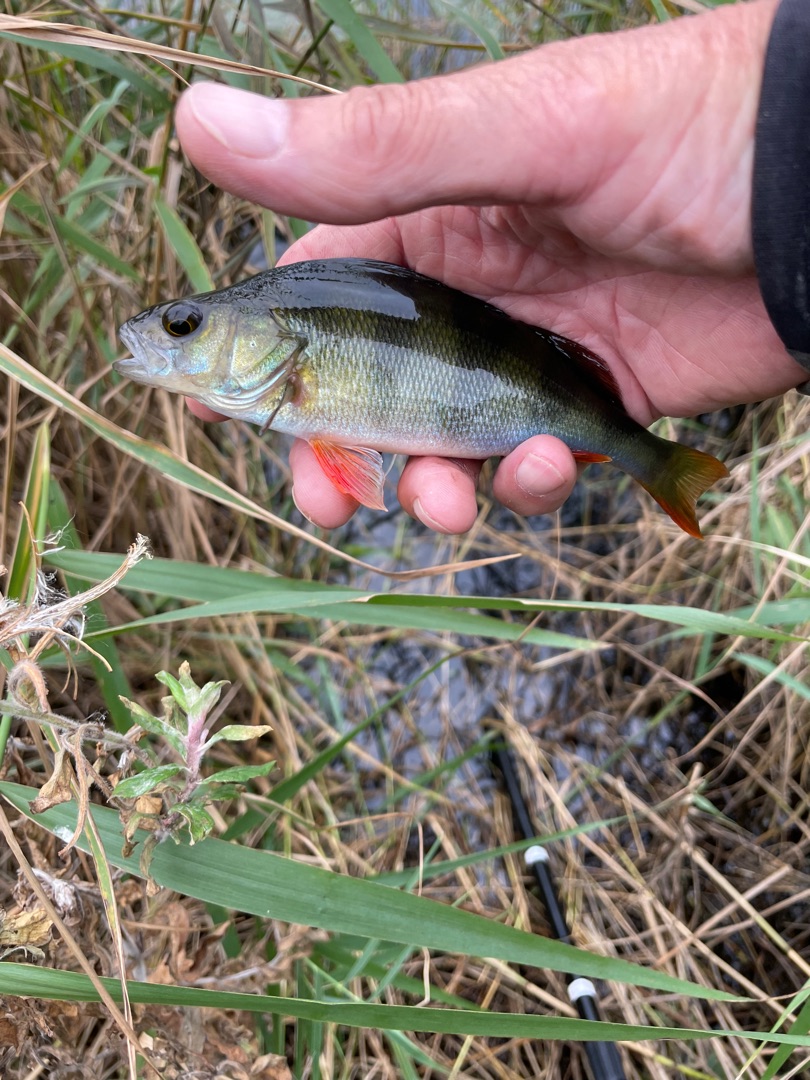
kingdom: Animalia
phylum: Chordata
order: Perciformes
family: Percidae
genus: Perca
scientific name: Perca fluviatilis
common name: Aborre
